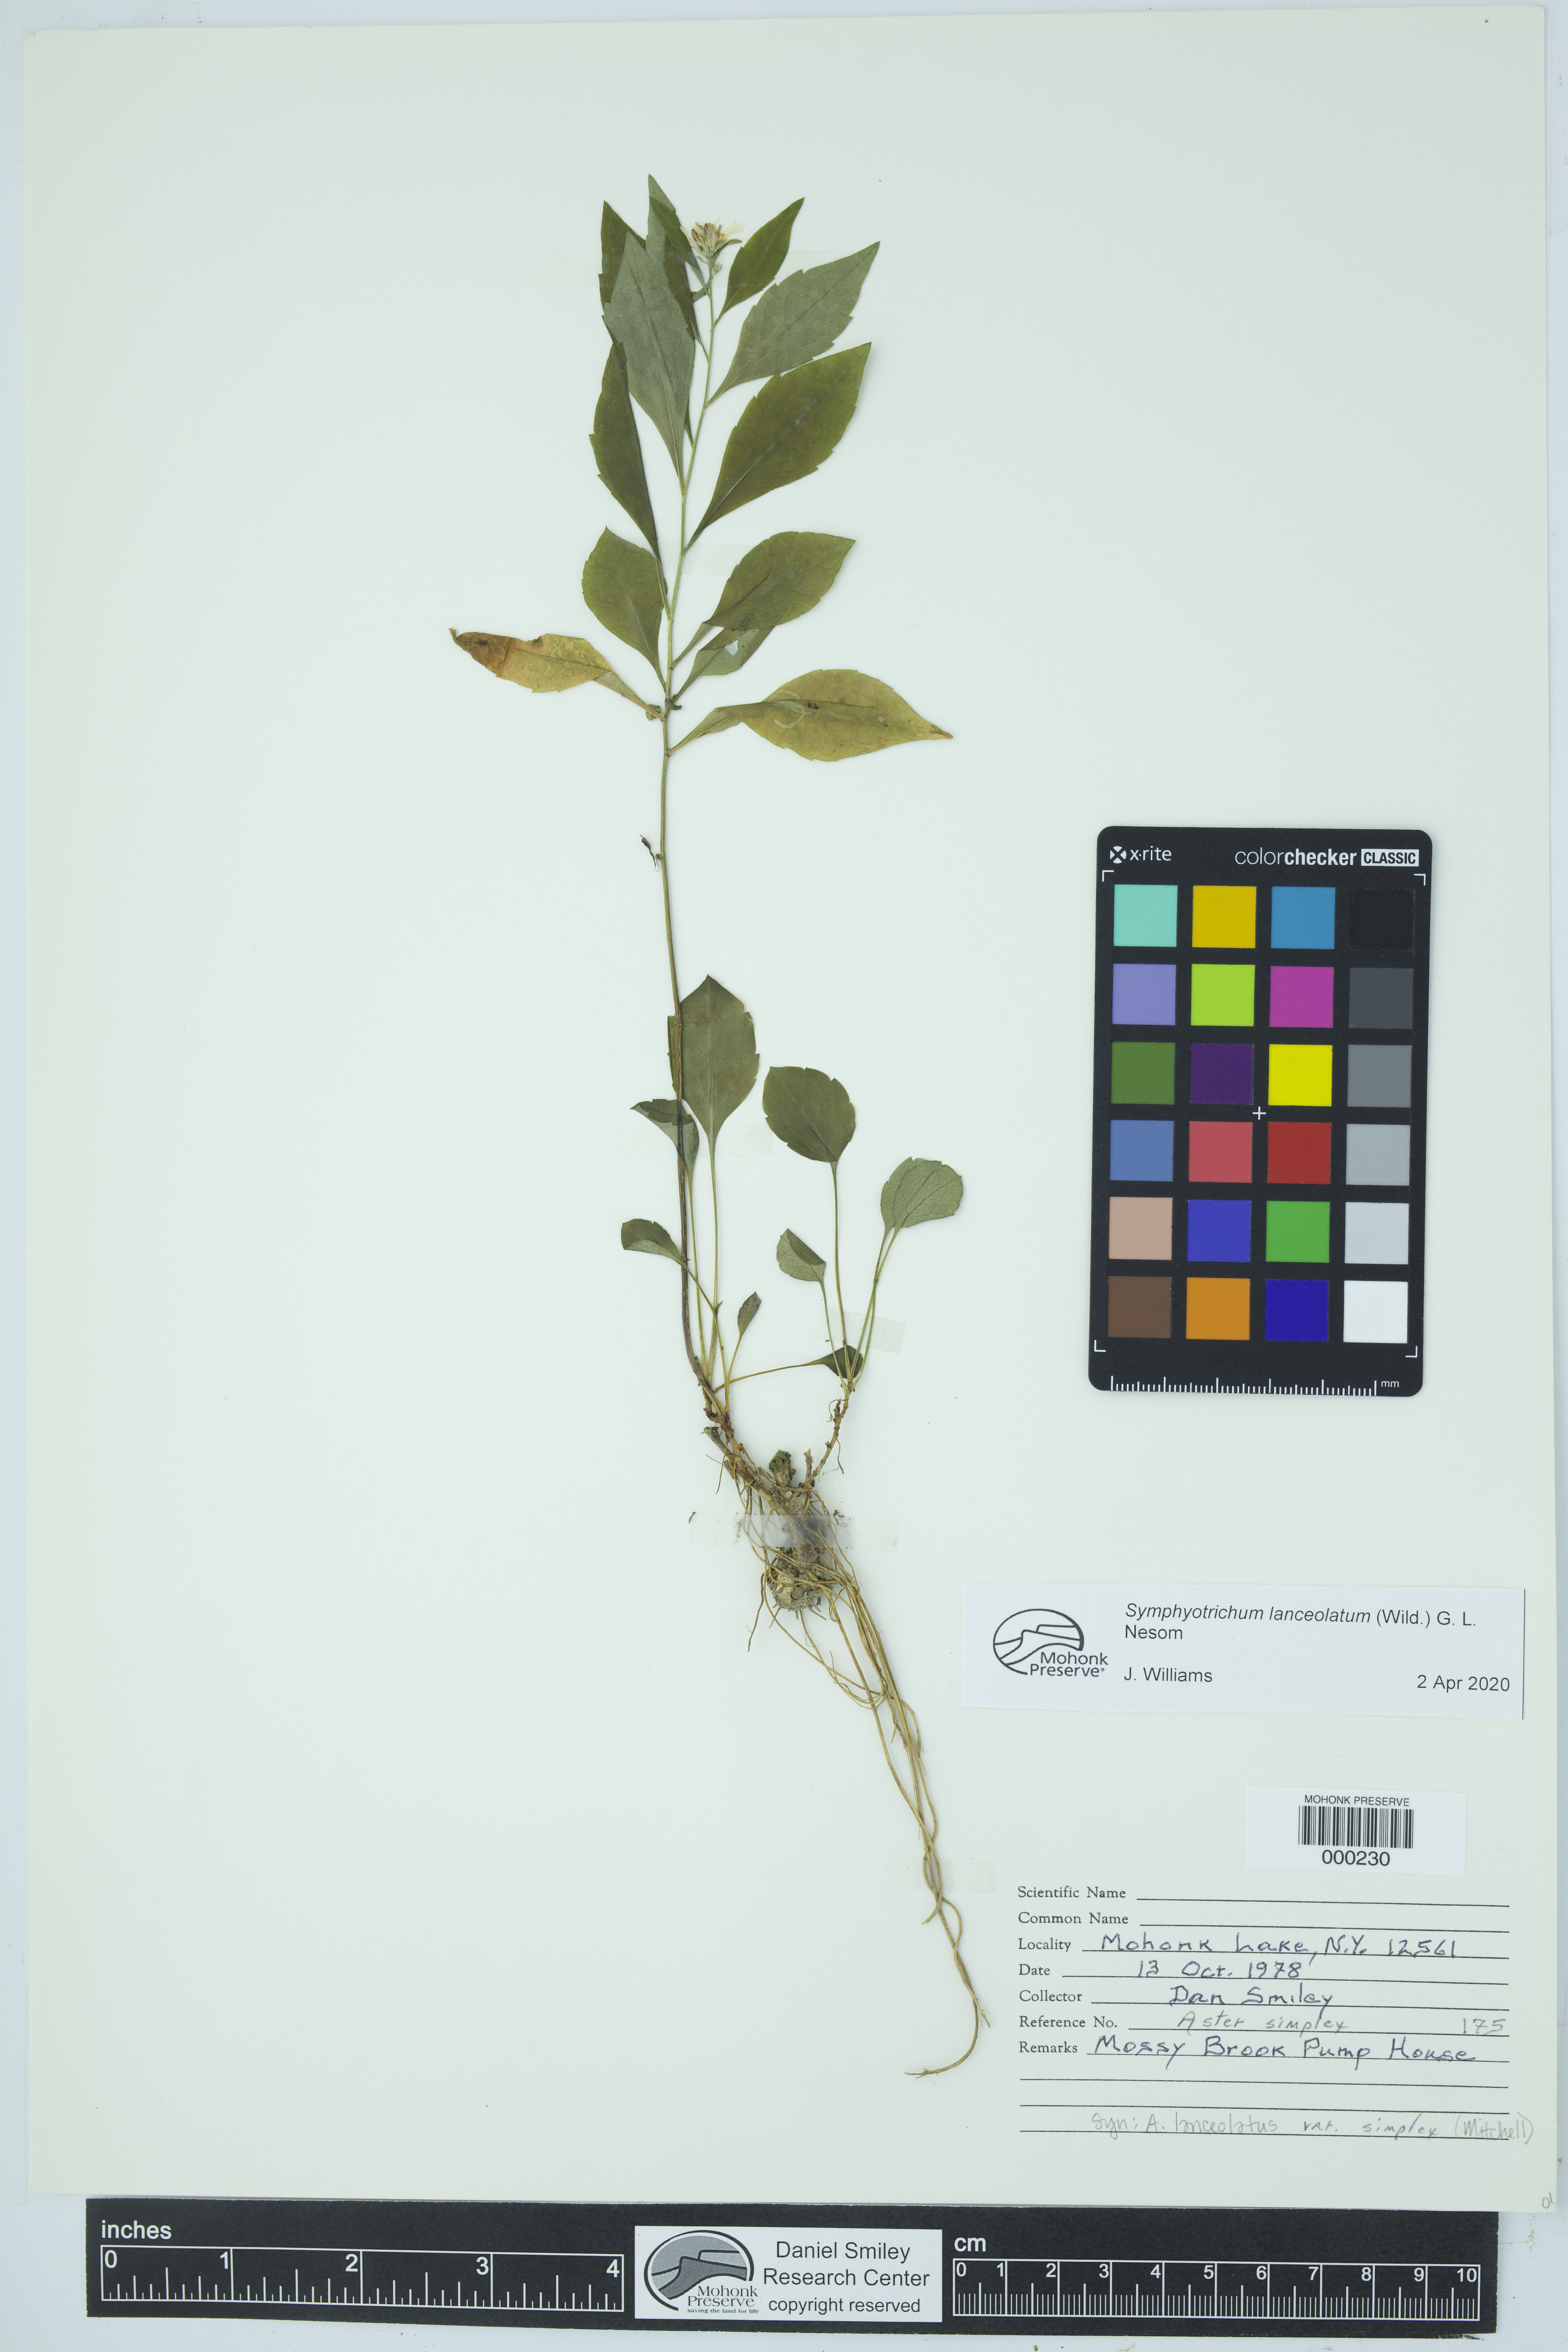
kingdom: Plantae
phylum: Tracheophyta
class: Magnoliopsida
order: Asterales
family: Asteraceae
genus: Symphyotrichum
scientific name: Symphyotrichum lanceolatum
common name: Panicled aster
